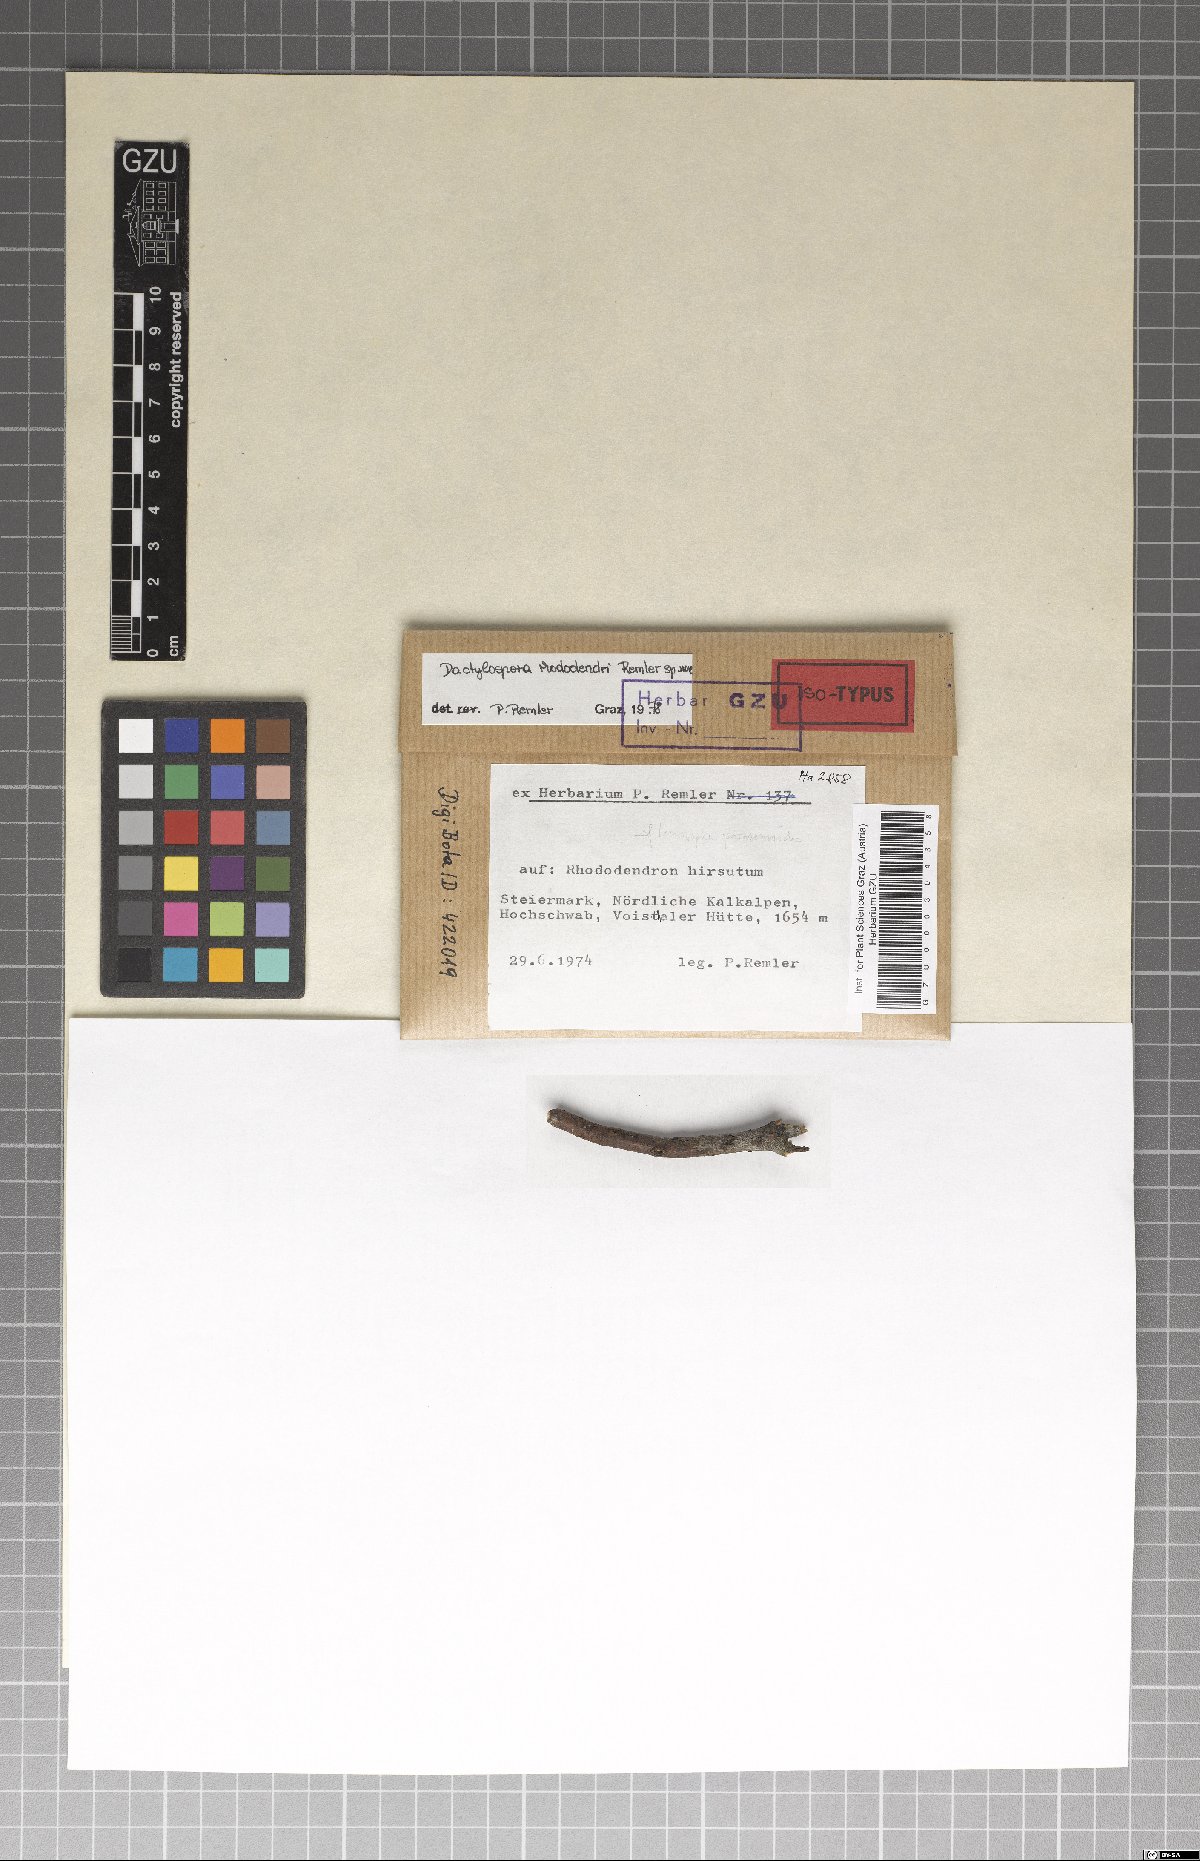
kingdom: Fungi
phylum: Ascomycota
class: Lecanoromycetes
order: Lecanorales
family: Dactylosporaceae
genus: Dactylospora
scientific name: Dactylospora
